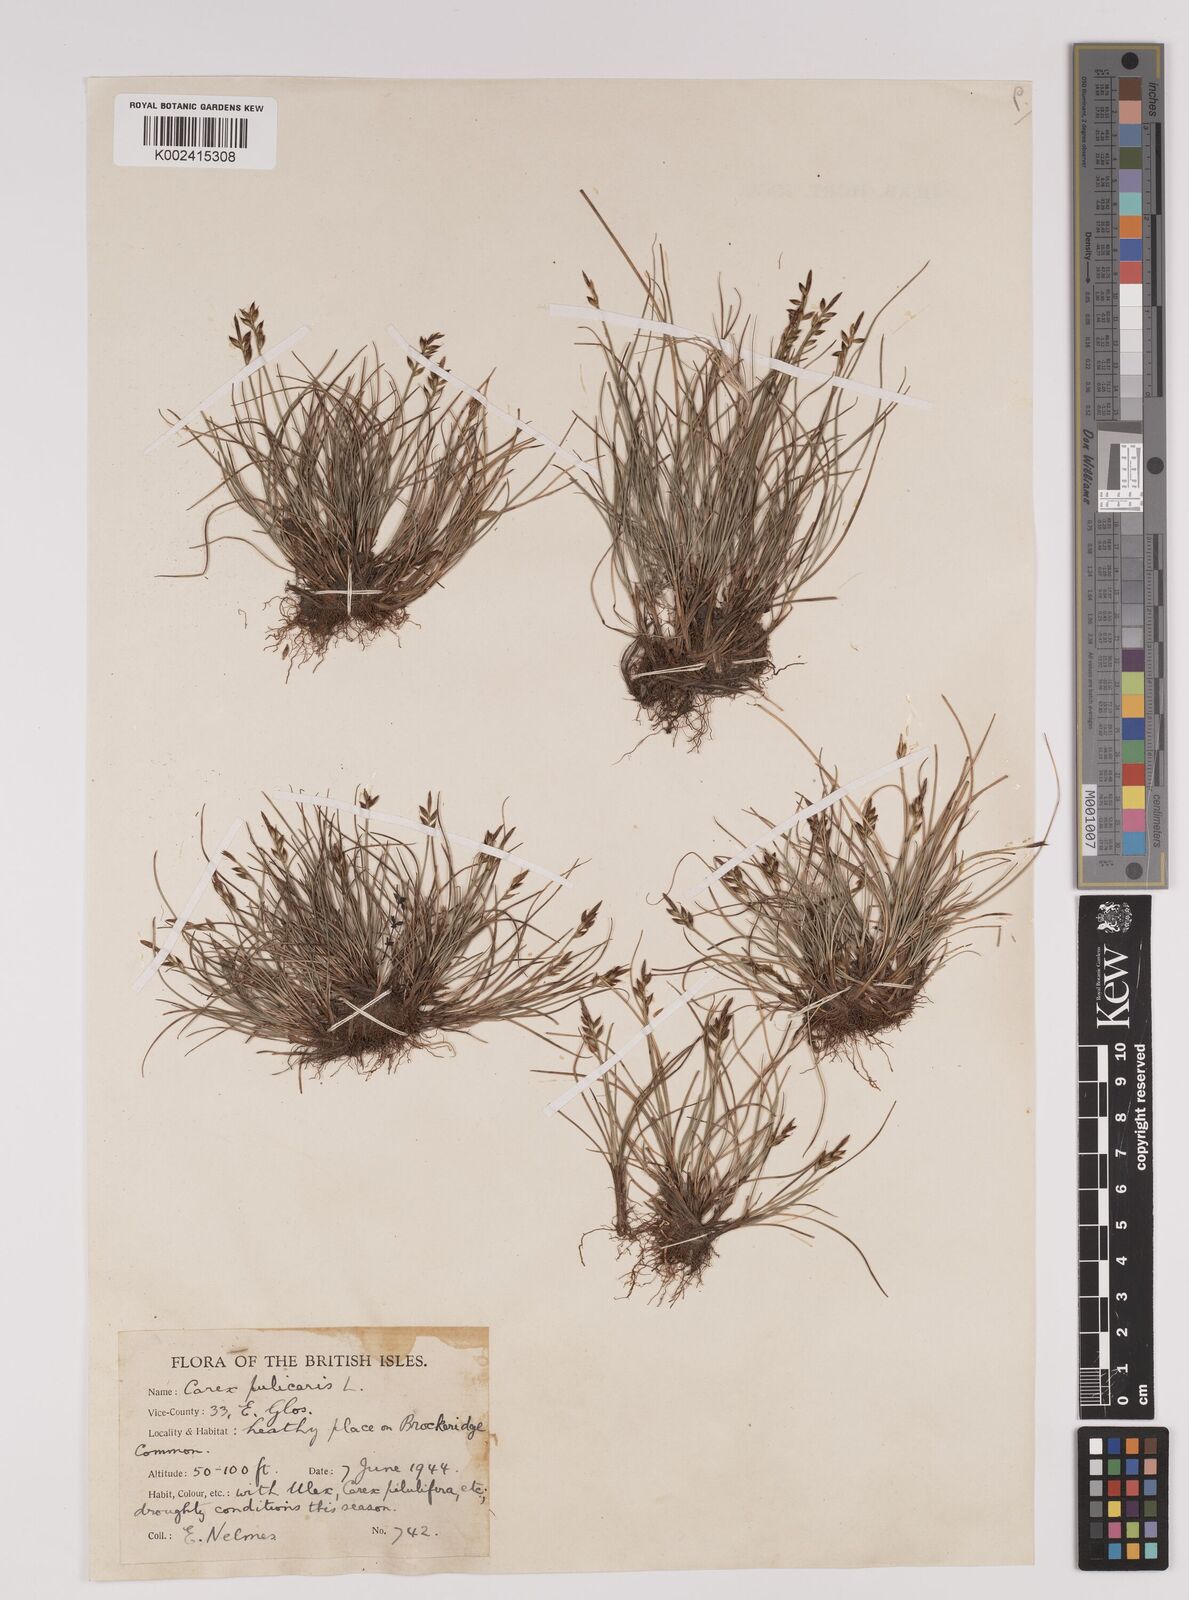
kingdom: Plantae
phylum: Tracheophyta
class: Liliopsida
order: Poales
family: Cyperaceae
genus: Carex
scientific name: Carex pulicaris
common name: Flea sedge
